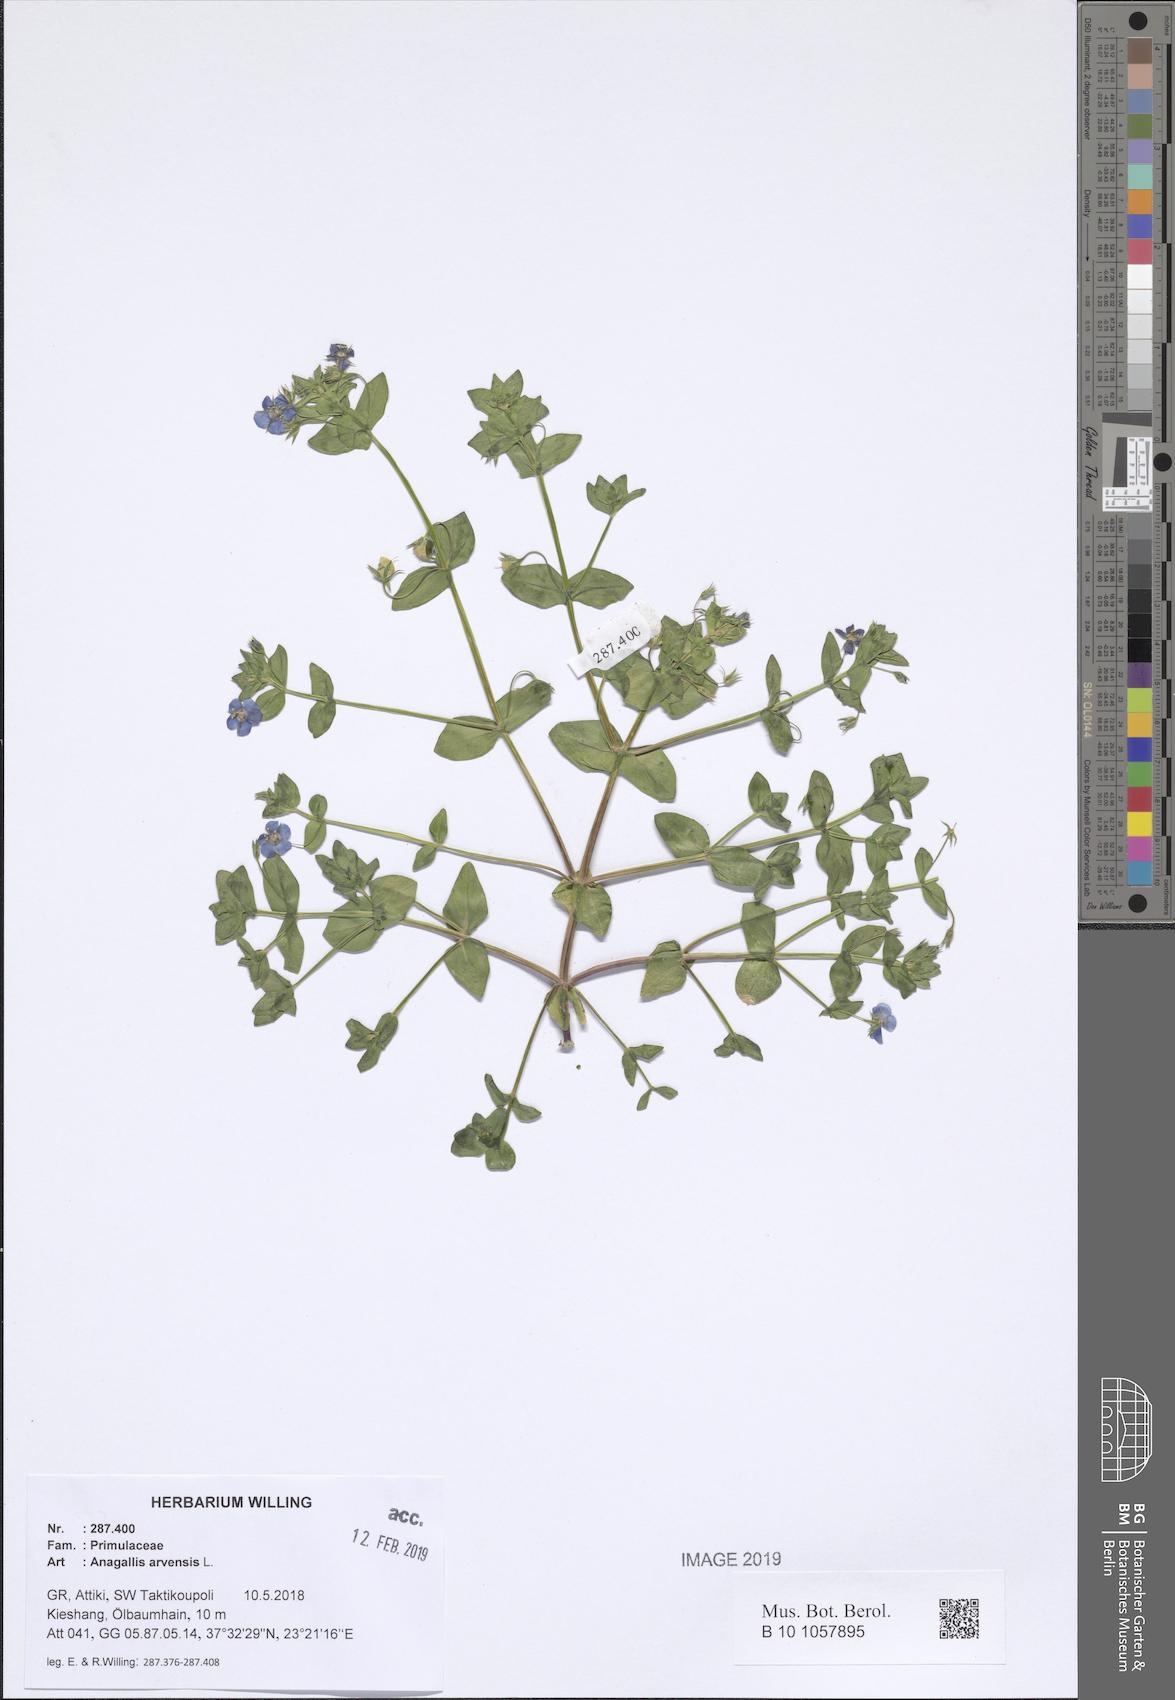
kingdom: Plantae
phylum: Tracheophyta
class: Magnoliopsida
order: Ericales
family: Primulaceae
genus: Lysimachia
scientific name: Lysimachia arvensis
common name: Scarlet pimpernel
